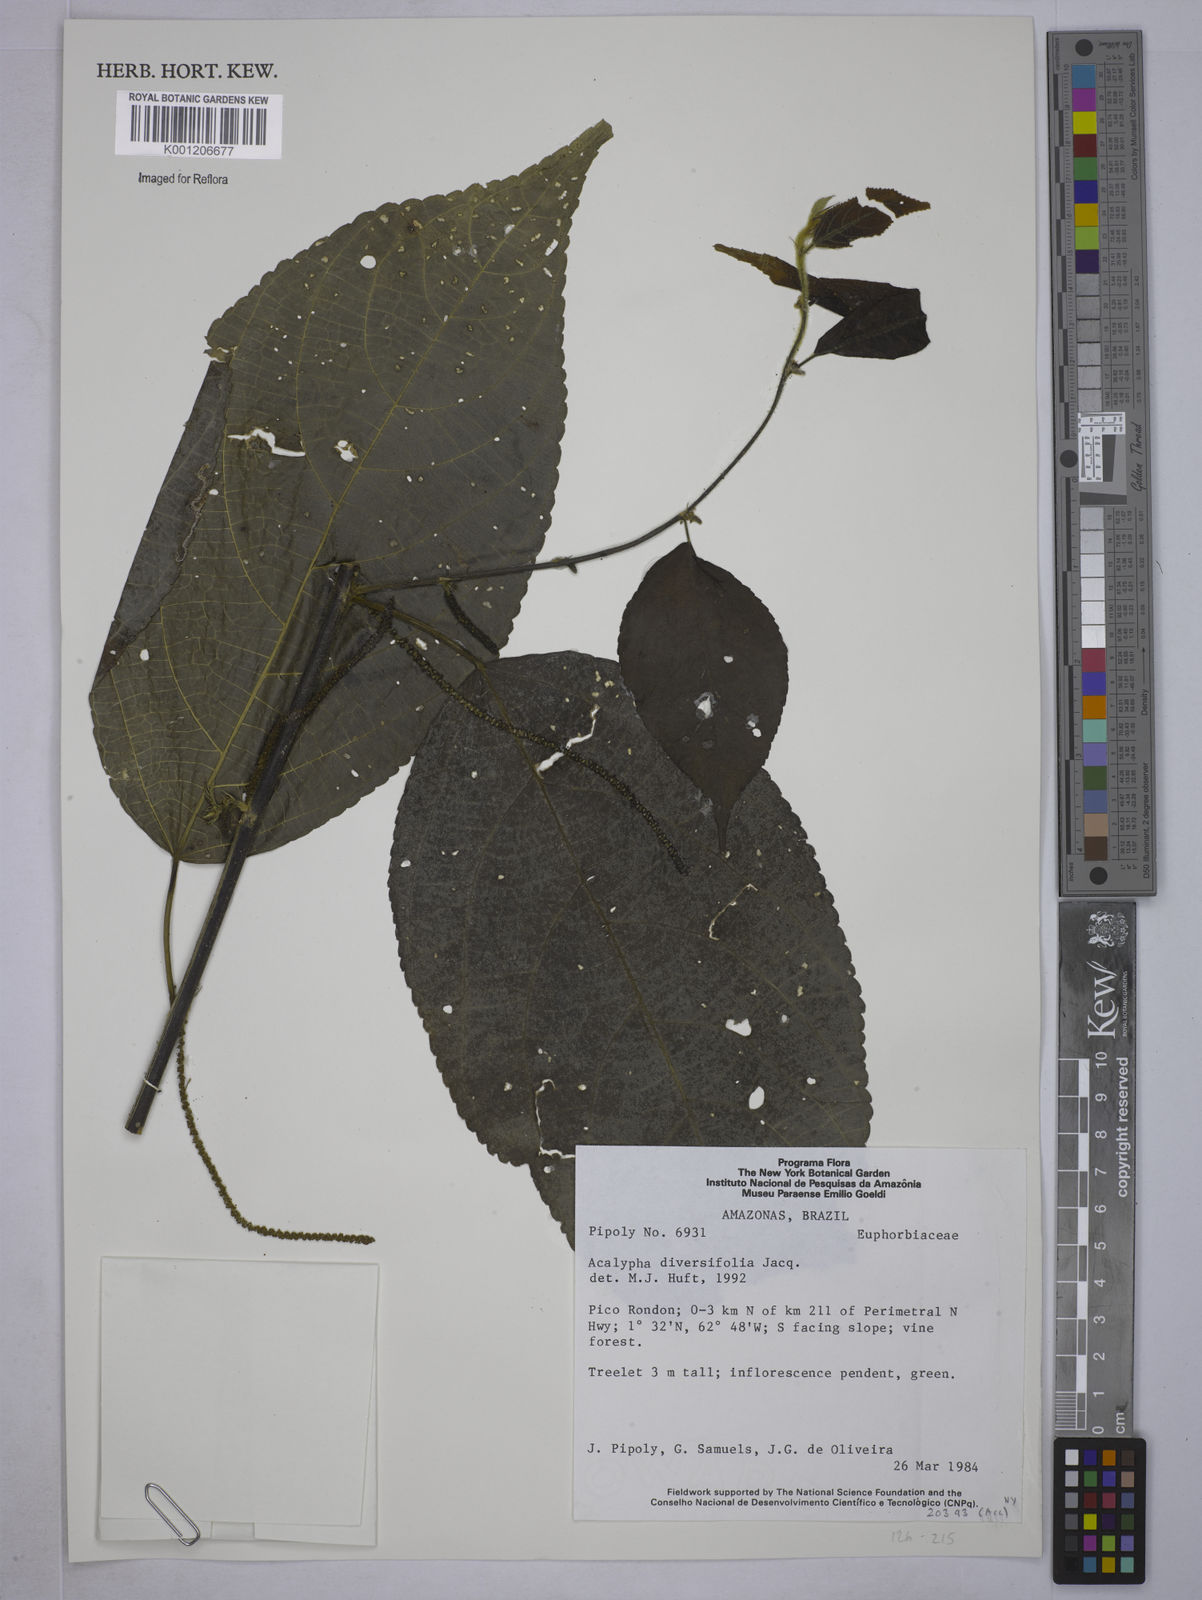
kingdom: Plantae
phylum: Tracheophyta
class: Magnoliopsida
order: Malpighiales
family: Euphorbiaceae
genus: Acalypha
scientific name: Acalypha diversifolia
